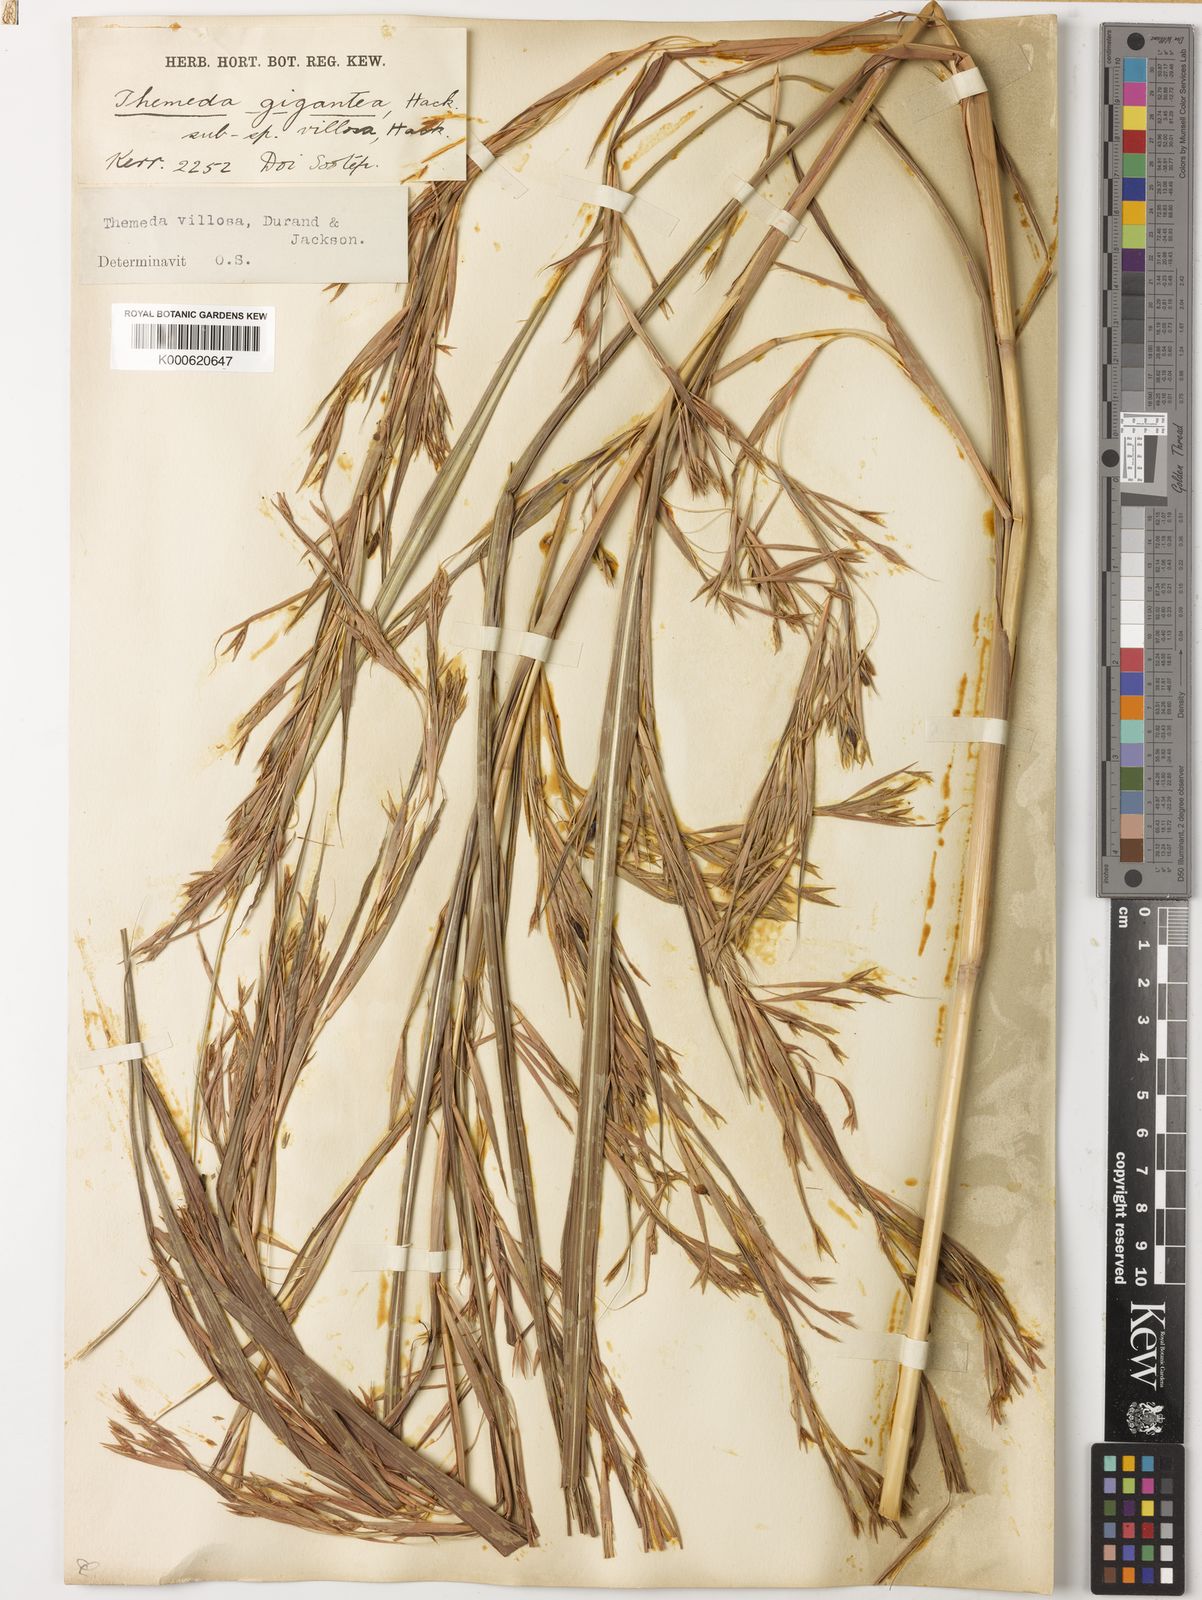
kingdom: Plantae
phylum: Tracheophyta
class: Liliopsida
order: Poales
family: Poaceae
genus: Themeda
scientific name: Themeda villosa
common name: Silky kangaroo grass
